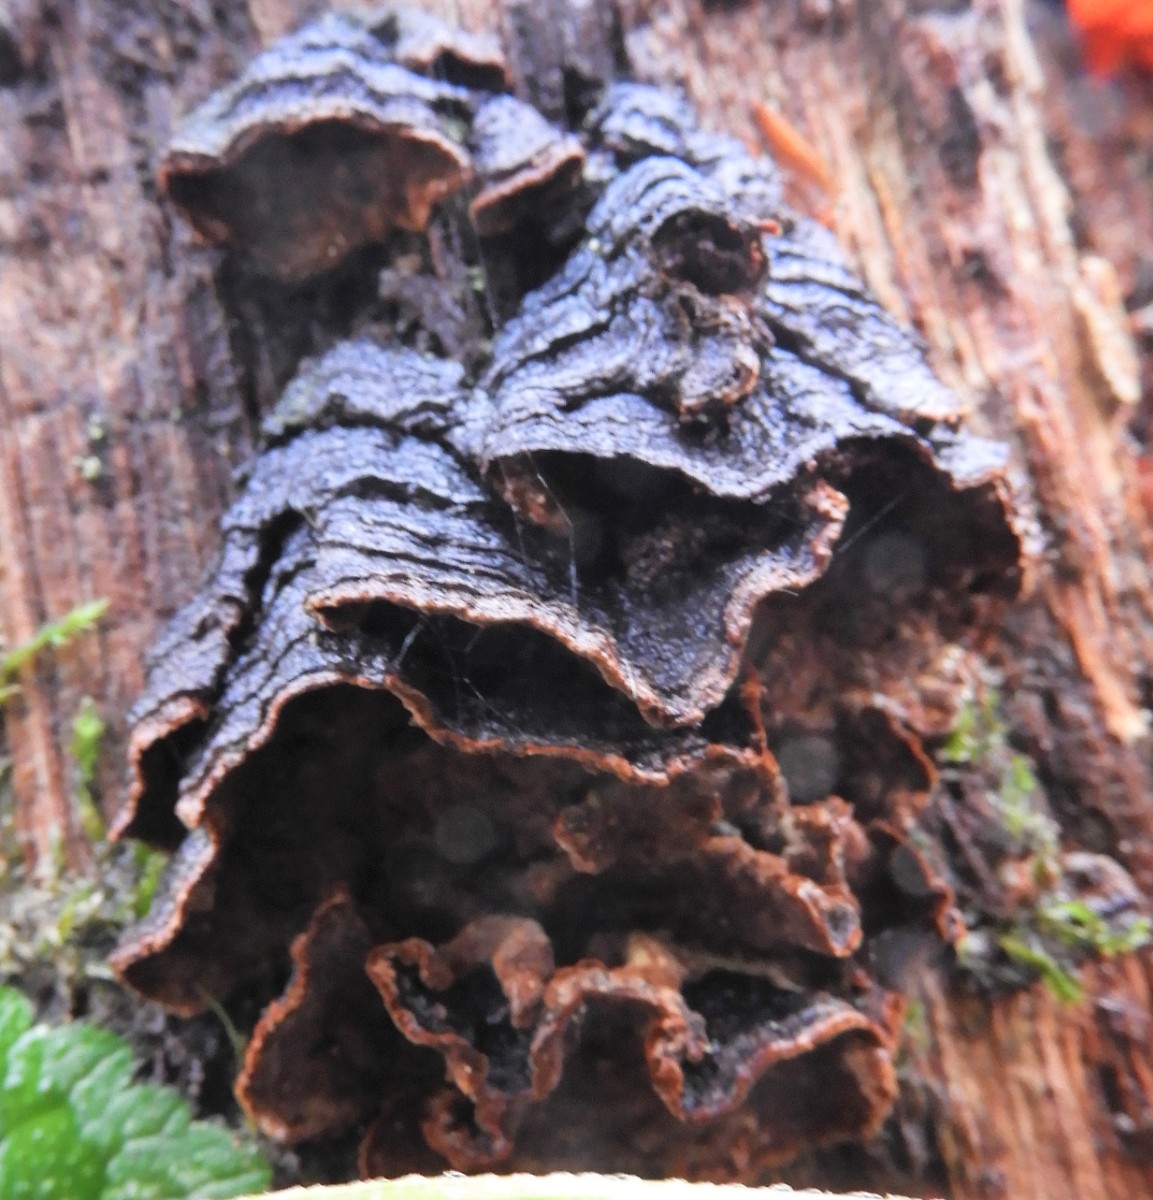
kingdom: Fungi
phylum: Basidiomycota
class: Agaricomycetes
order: Hymenochaetales
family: Hymenochaetaceae
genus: Hymenochaete
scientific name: Hymenochaete rubiginosa
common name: stiv ruslædersvamp
